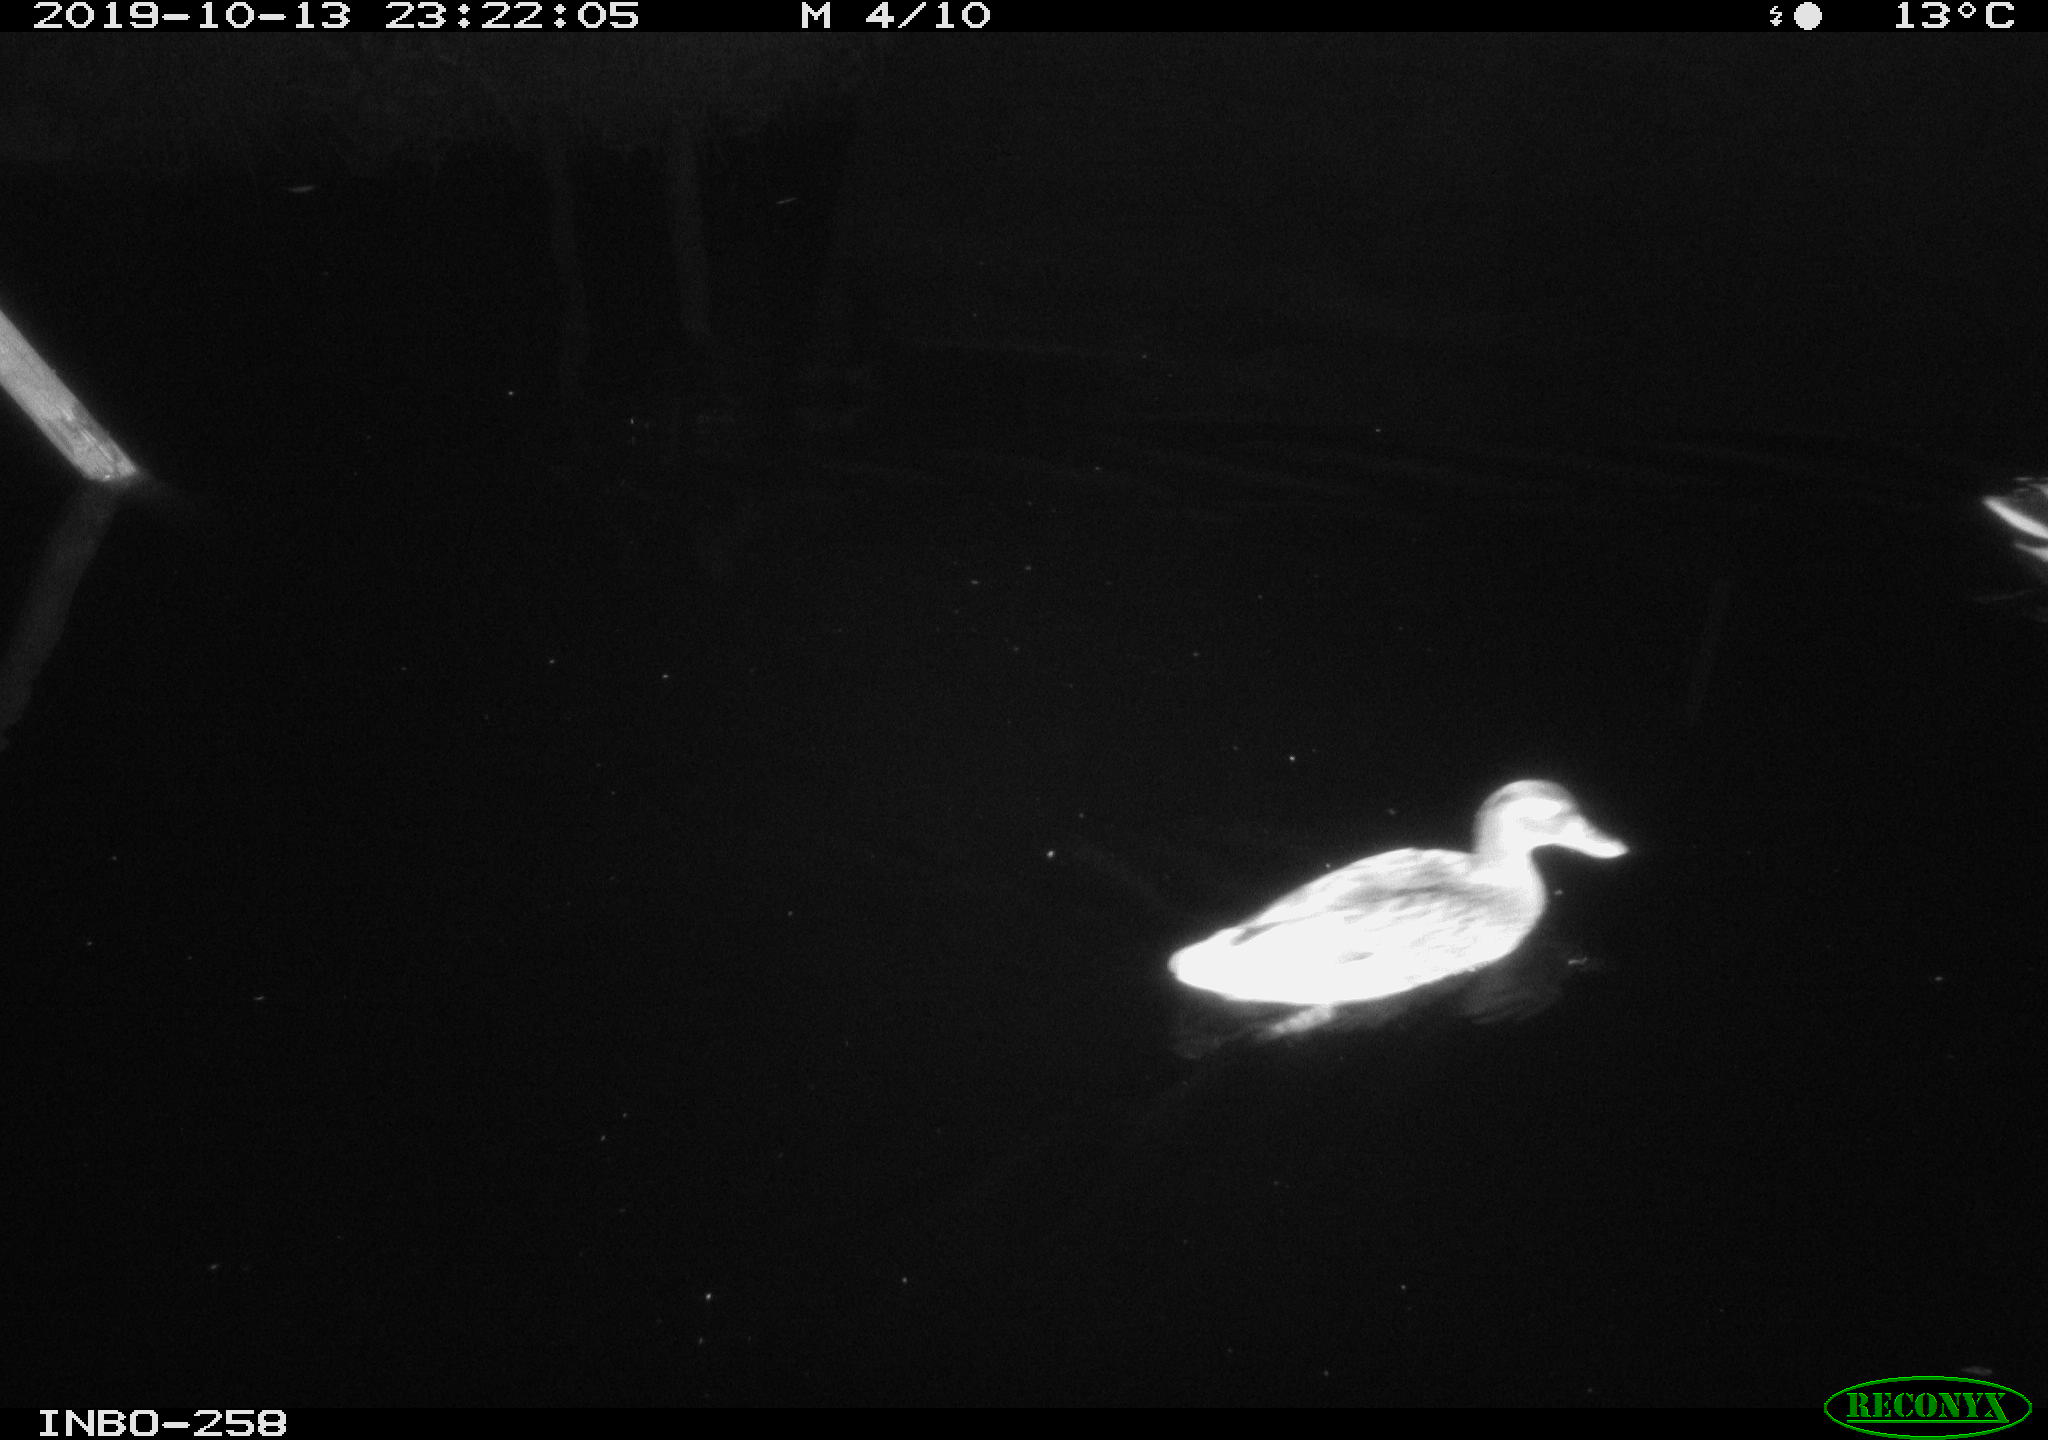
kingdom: Animalia
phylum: Chordata
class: Aves
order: Anseriformes
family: Anatidae
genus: Anas
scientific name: Anas platyrhynchos
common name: Mallard
